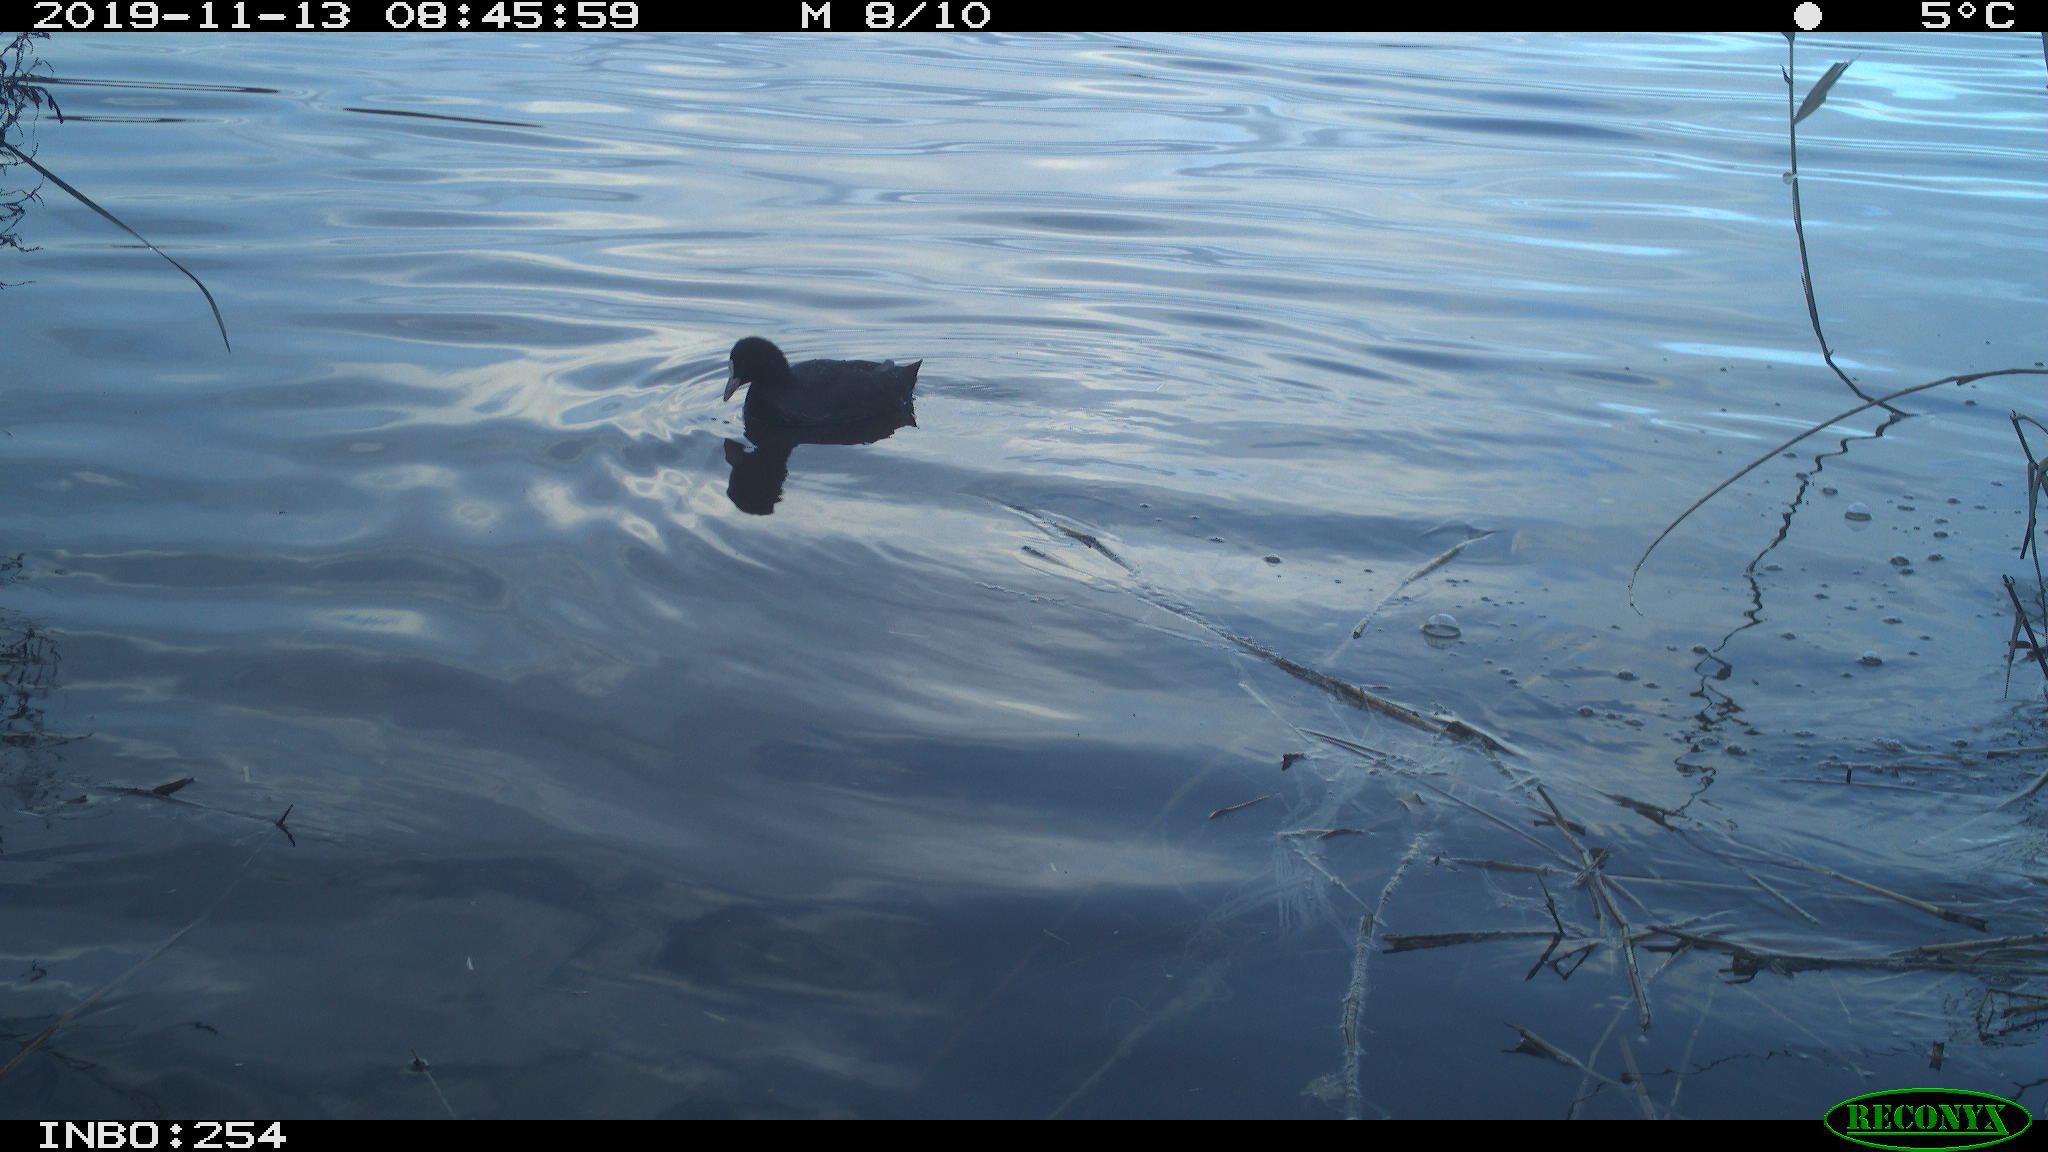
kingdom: Animalia
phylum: Chordata
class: Aves
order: Gruiformes
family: Rallidae
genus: Fulica
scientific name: Fulica atra
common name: Eurasian coot
